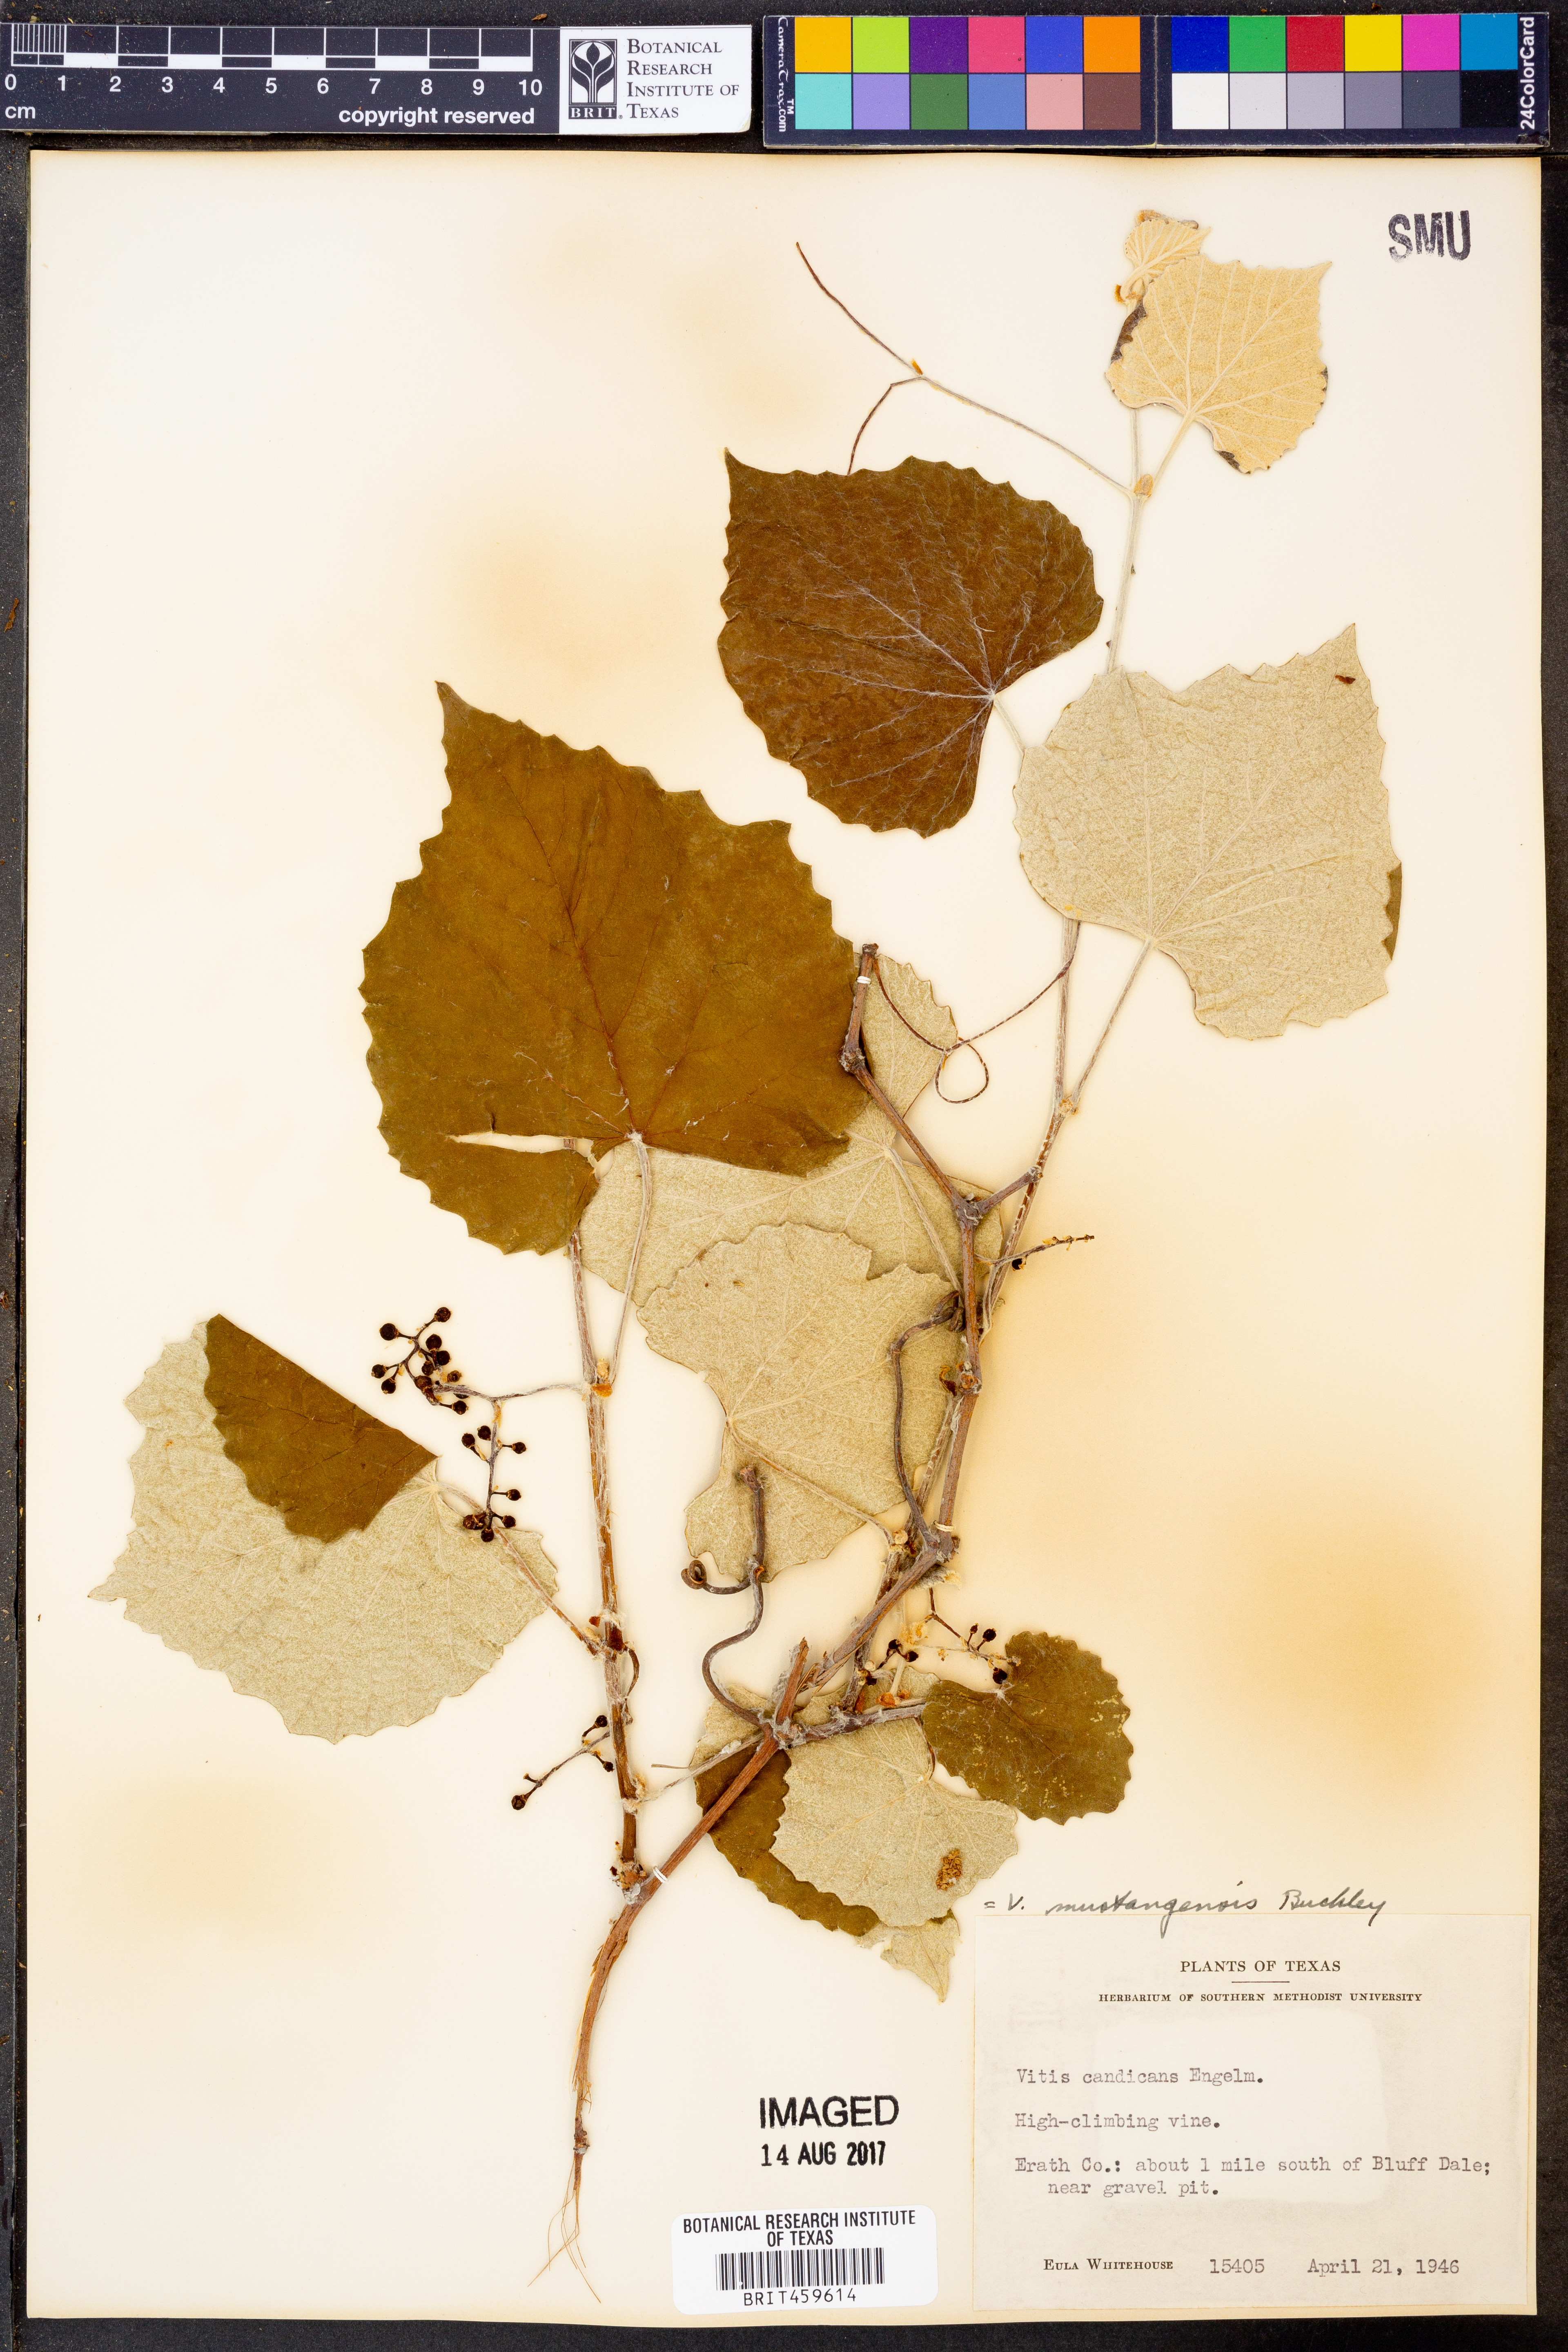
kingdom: Plantae
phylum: Tracheophyta
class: Magnoliopsida
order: Vitales
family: Vitaceae
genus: Vitis
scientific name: Vitis mustangensis
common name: Mustang grape
